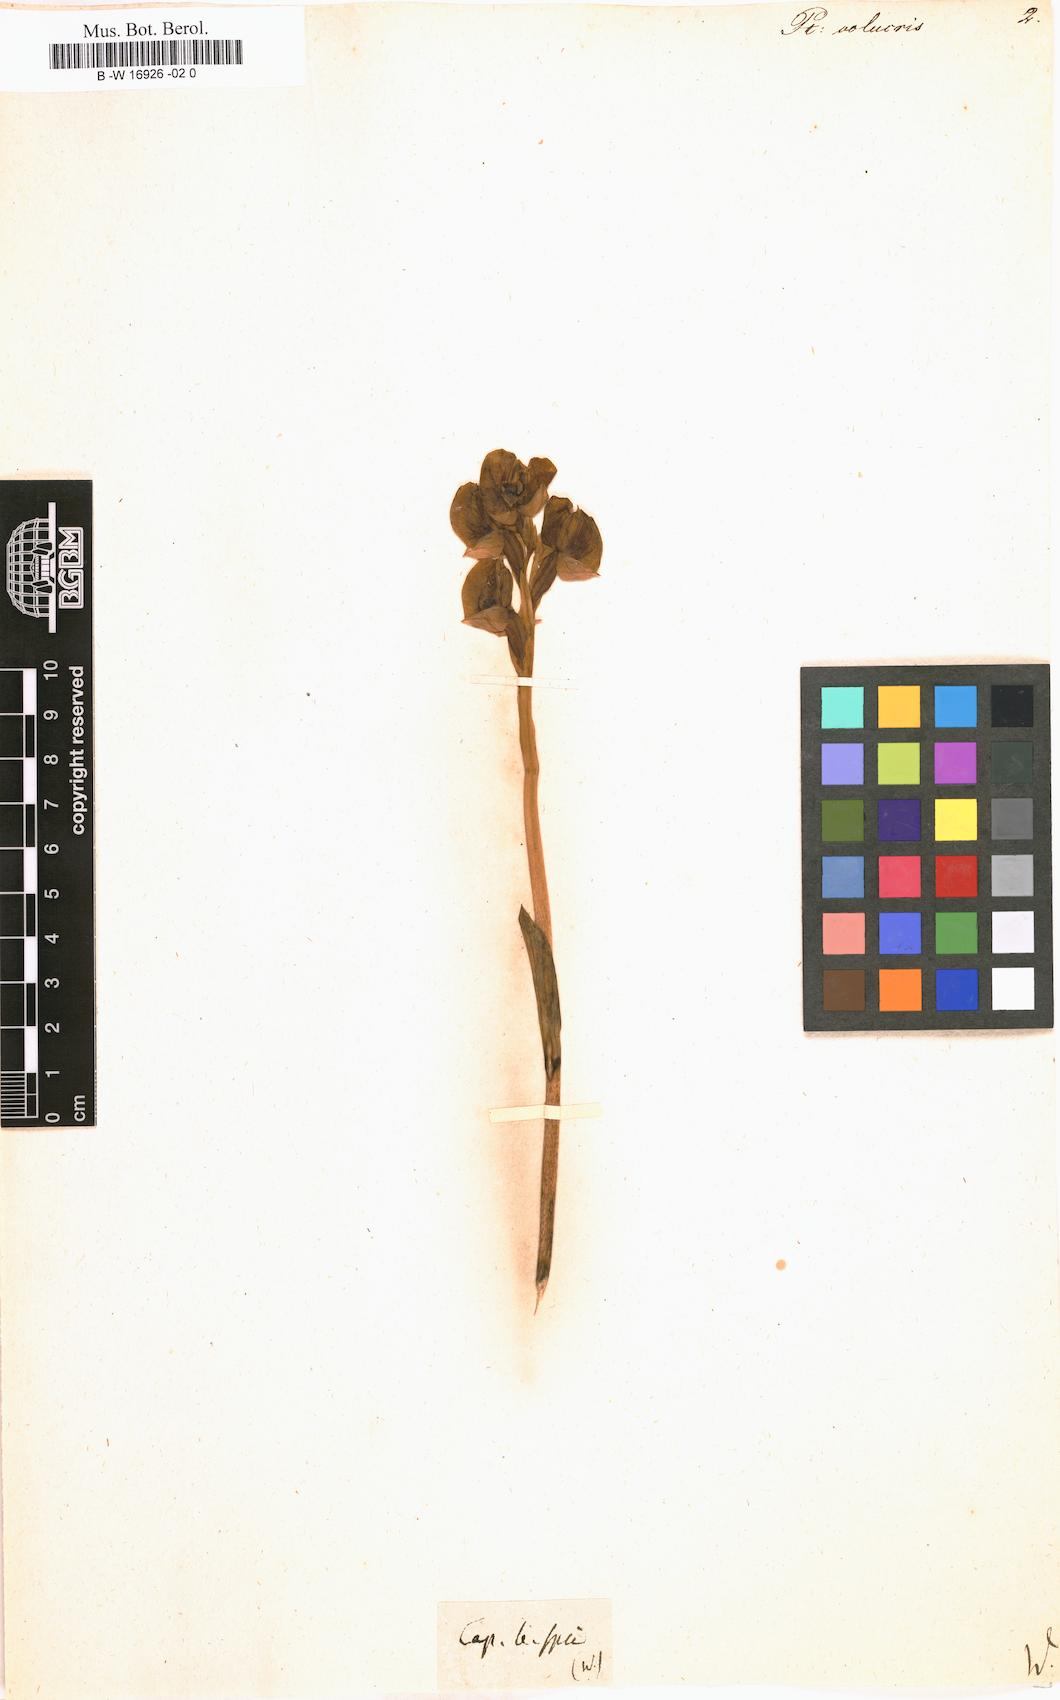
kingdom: Plantae
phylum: Tracheophyta
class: Liliopsida
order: Asparagales
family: Orchidaceae
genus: Pterygodium
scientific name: Pterygodium volucris
